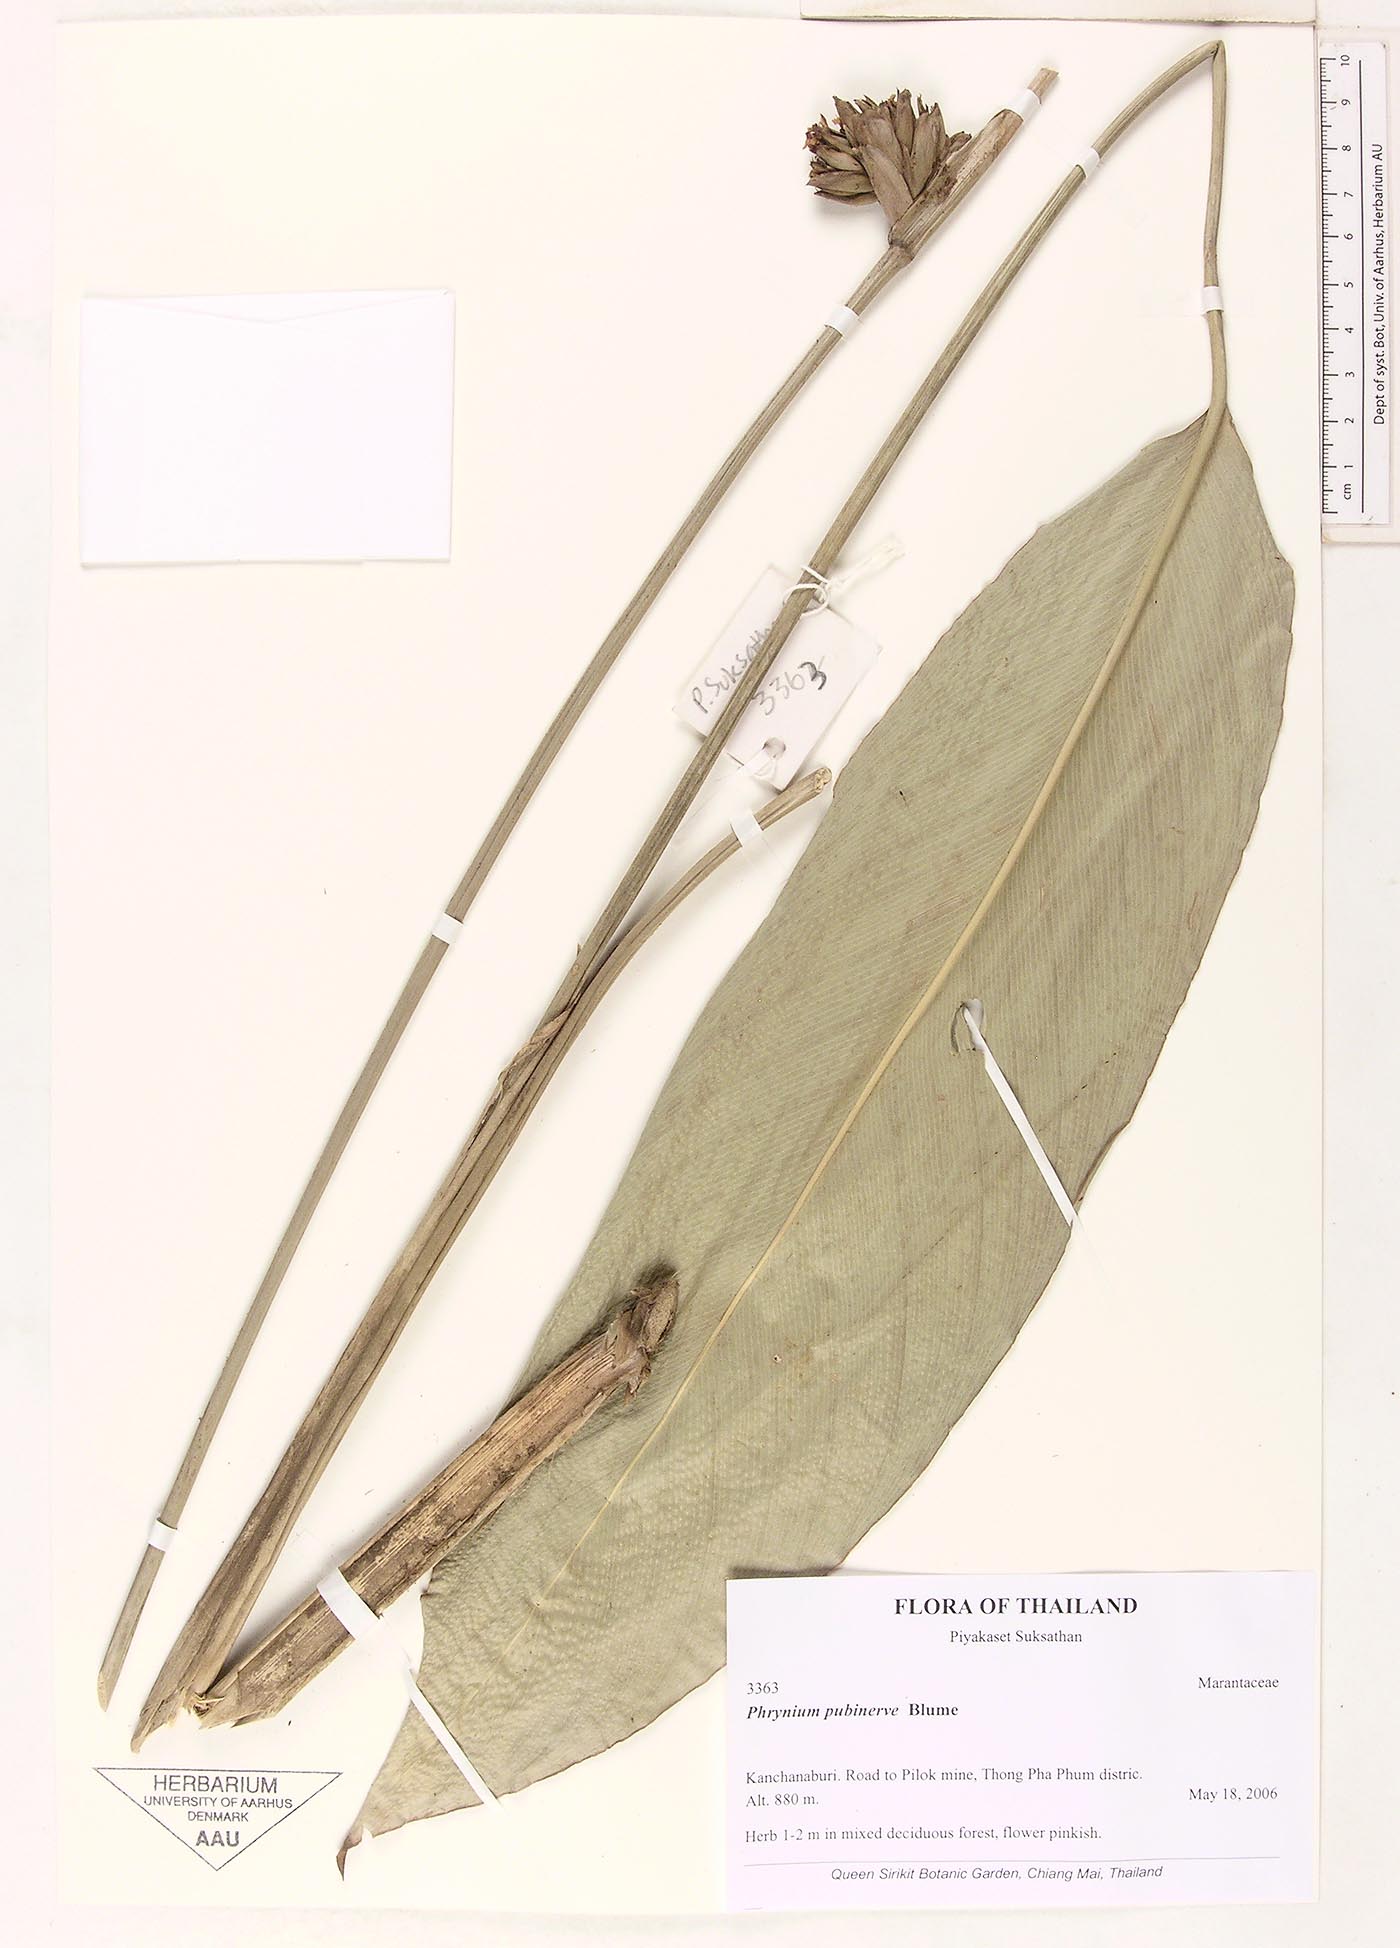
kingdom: Plantae
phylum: Tracheophyta
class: Liliopsida
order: Zingiberales
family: Marantaceae
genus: Phrynium
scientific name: Phrynium pubinerve
